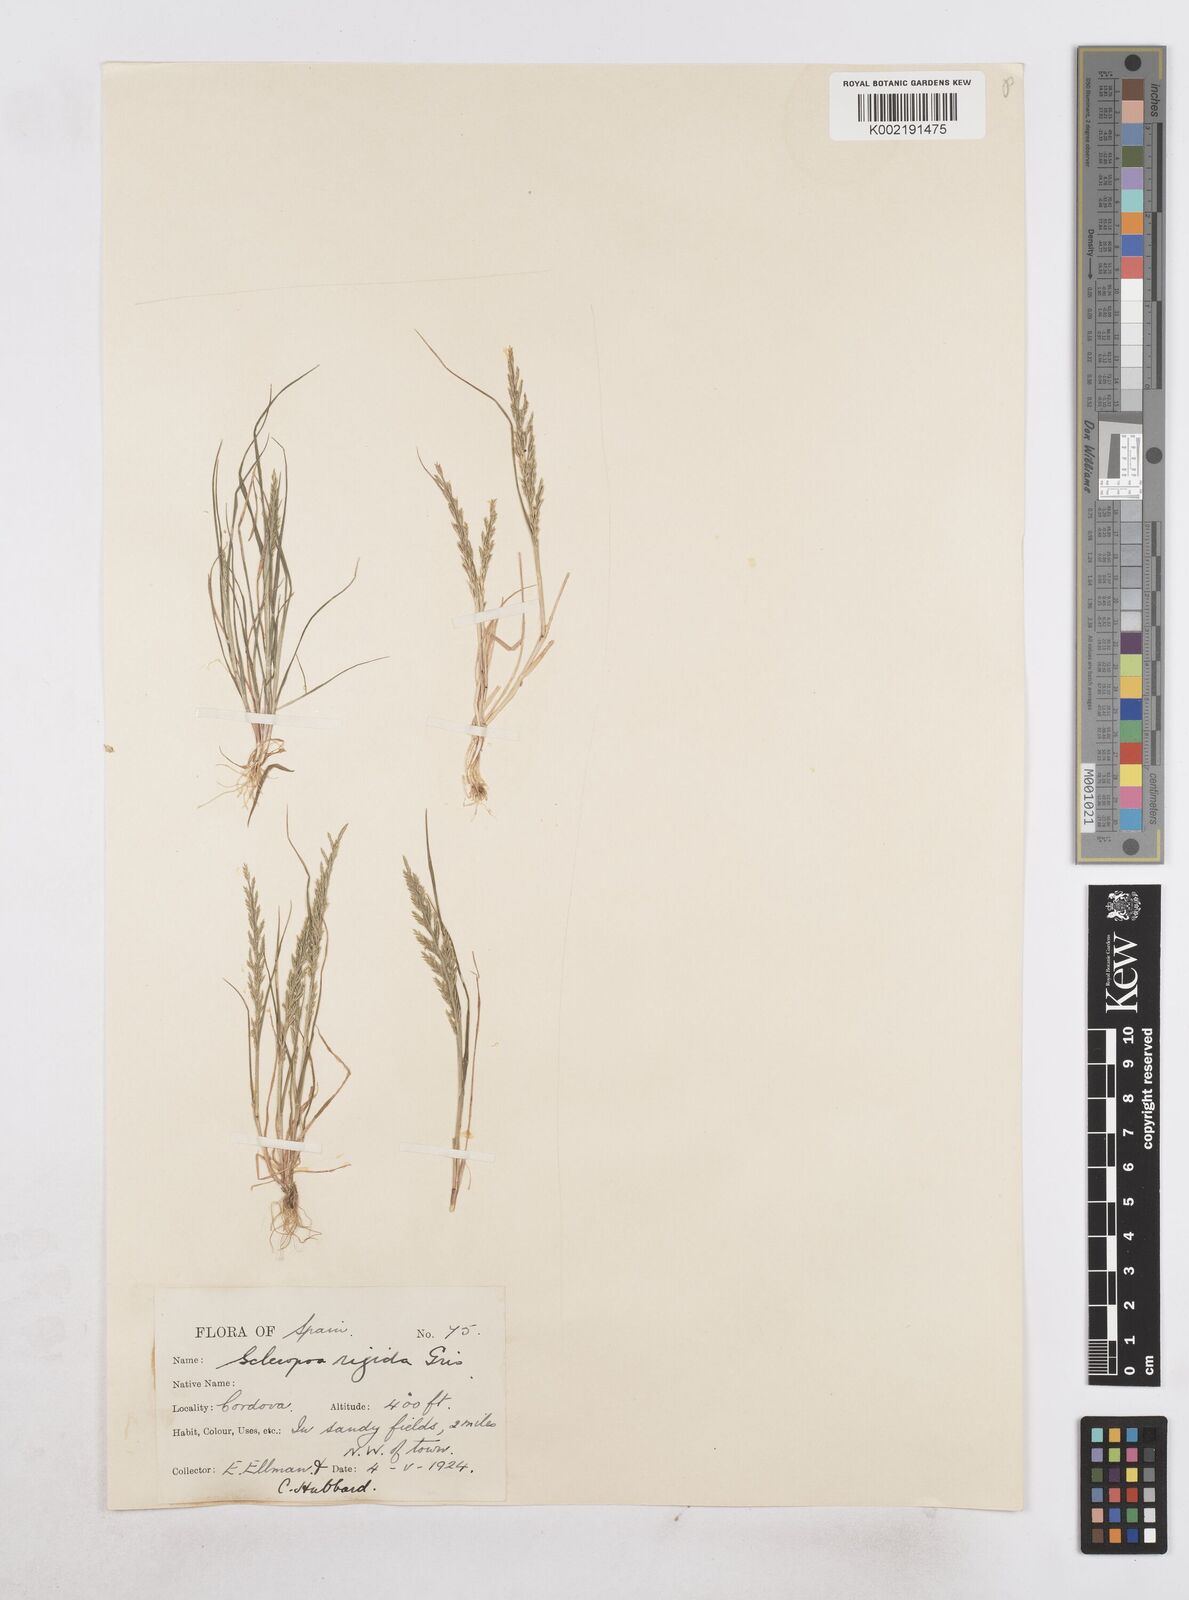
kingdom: Plantae
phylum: Tracheophyta
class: Liliopsida
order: Poales
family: Poaceae
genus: Catapodium
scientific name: Catapodium rigidum
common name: Fern-grass
